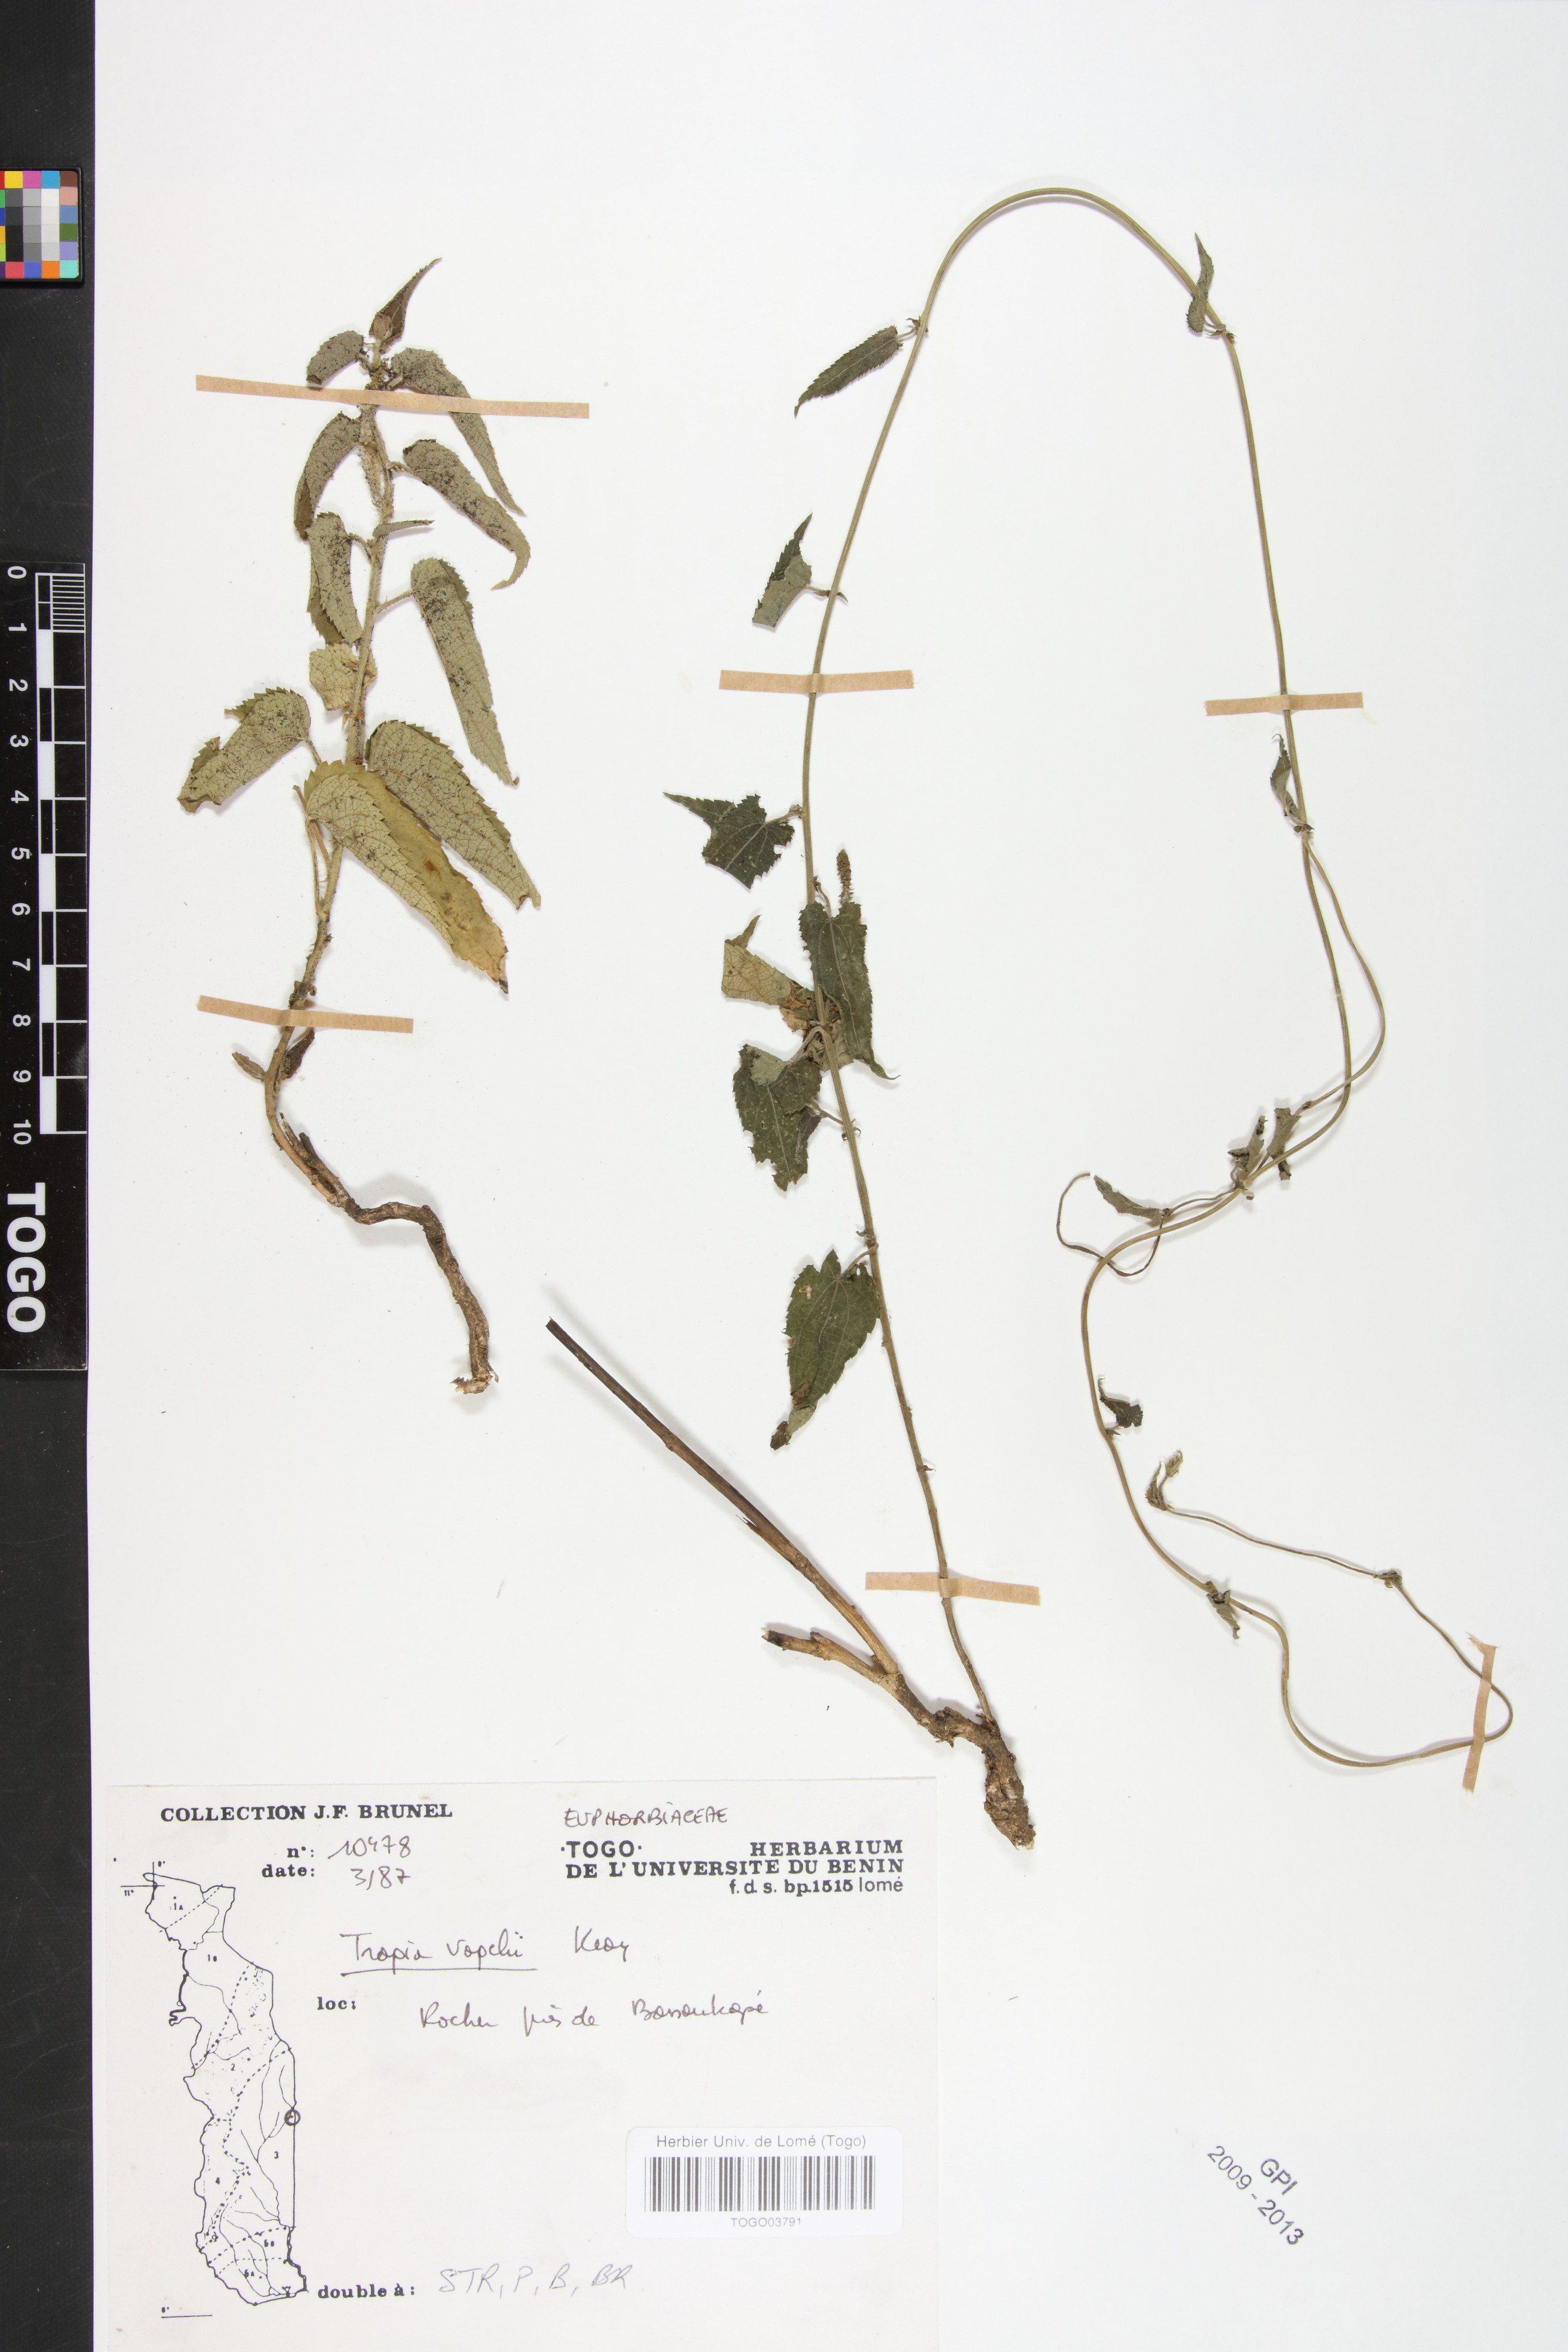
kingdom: Plantae
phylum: Tracheophyta
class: Magnoliopsida
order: Malpighiales
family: Euphorbiaceae
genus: Tragia
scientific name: Tragia vogelii
